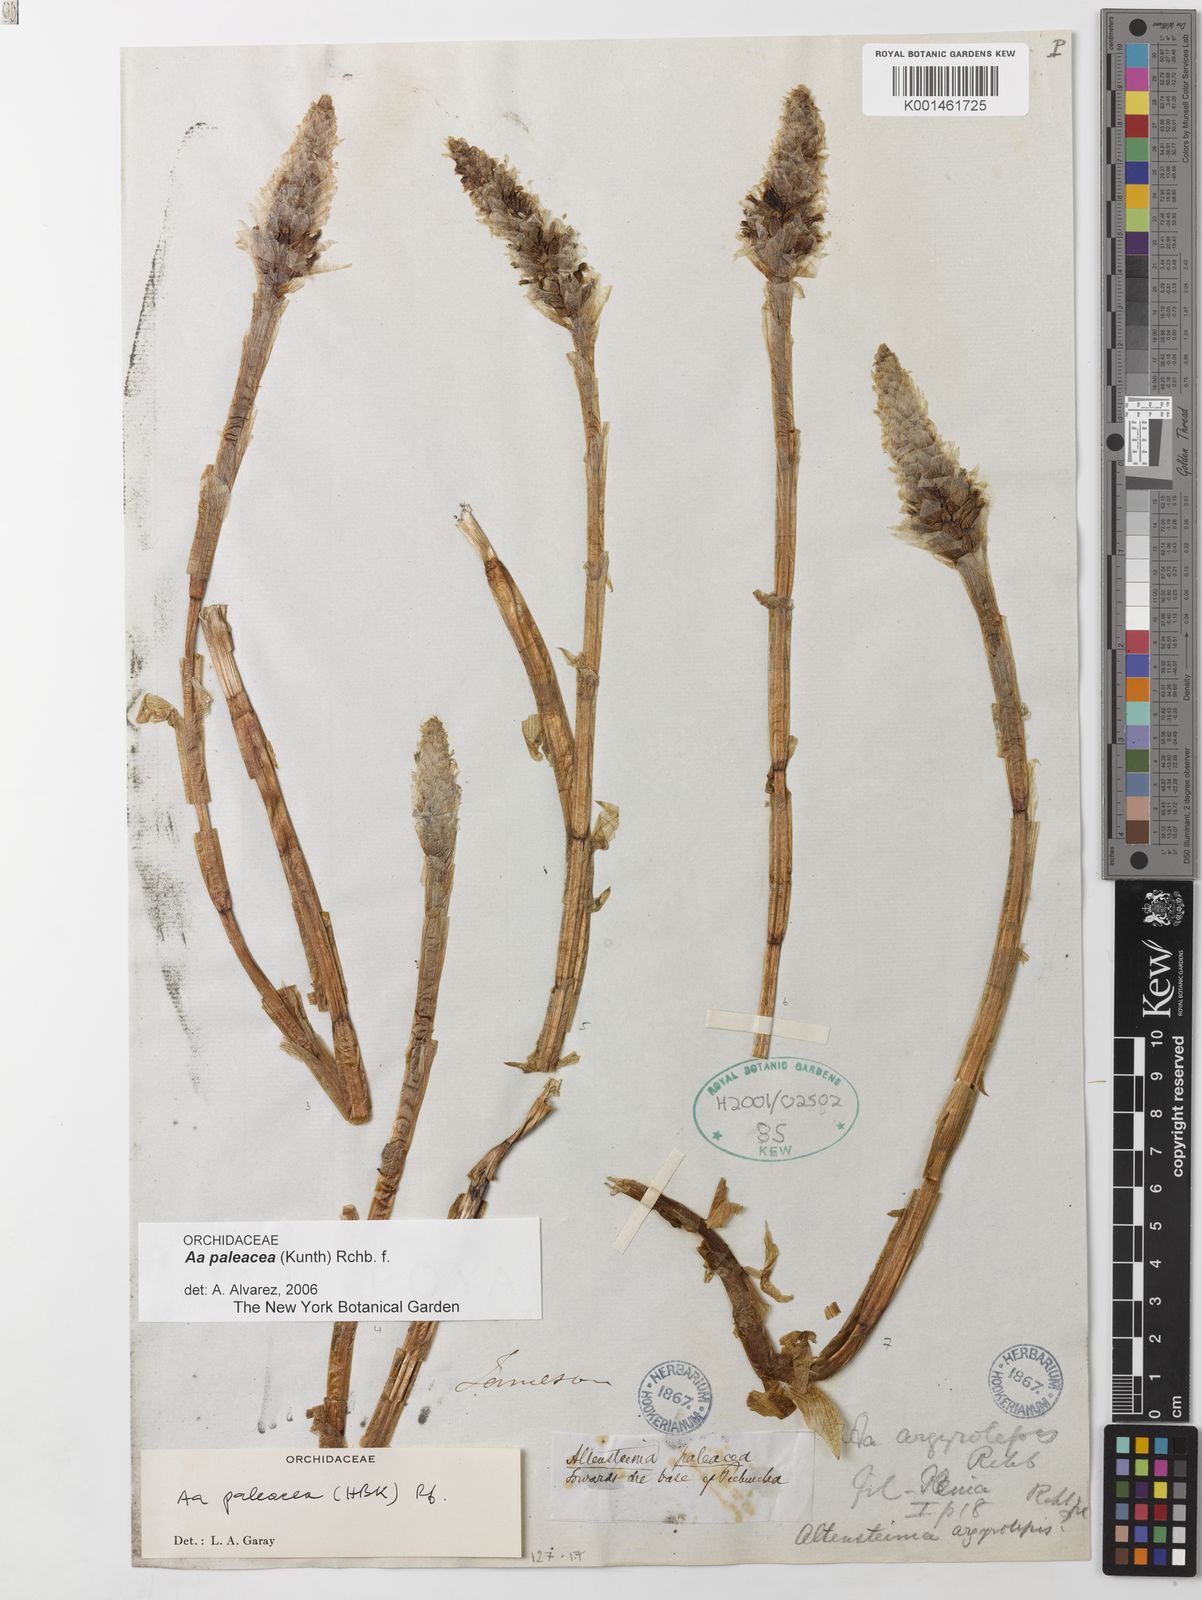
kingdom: Plantae
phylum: Tracheophyta
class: Liliopsida
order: Asparagales
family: Orchidaceae
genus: Aa
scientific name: Aa paleacea
